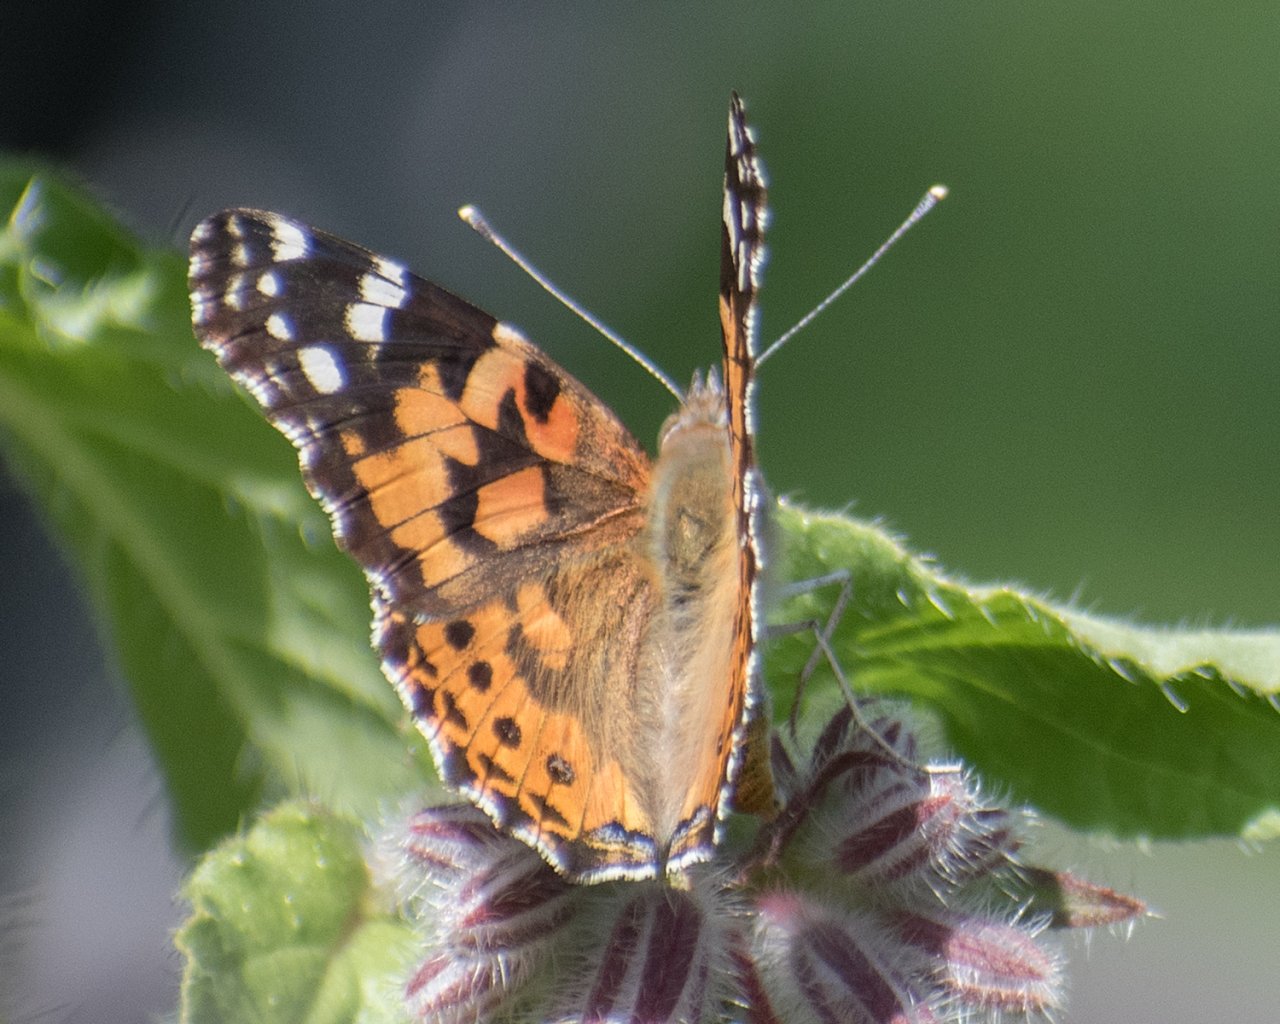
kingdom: Animalia
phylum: Arthropoda
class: Insecta
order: Lepidoptera
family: Nymphalidae
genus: Vanessa
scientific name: Vanessa cardui
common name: Painted Lady
